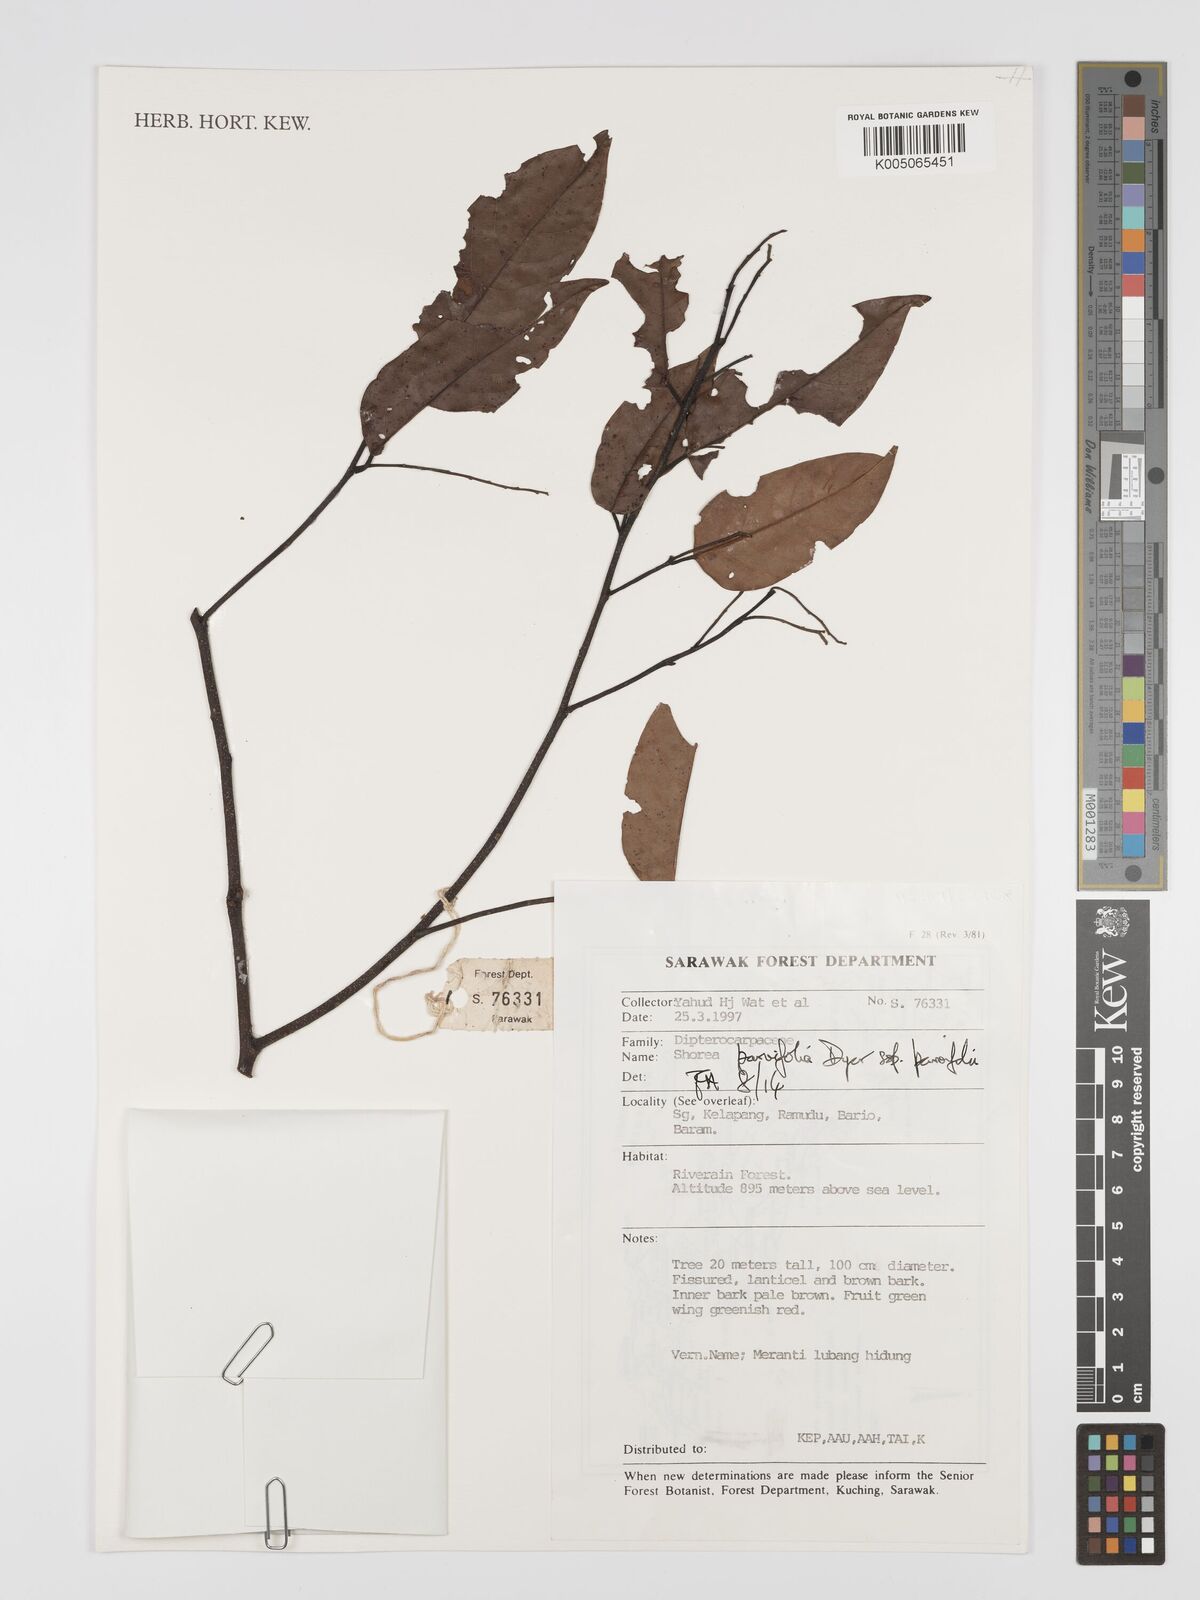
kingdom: Plantae
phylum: Tracheophyta
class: Magnoliopsida
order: Malvales
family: Dipterocarpaceae
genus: Shorea
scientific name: Shorea parvifolia
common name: Light red meranti
